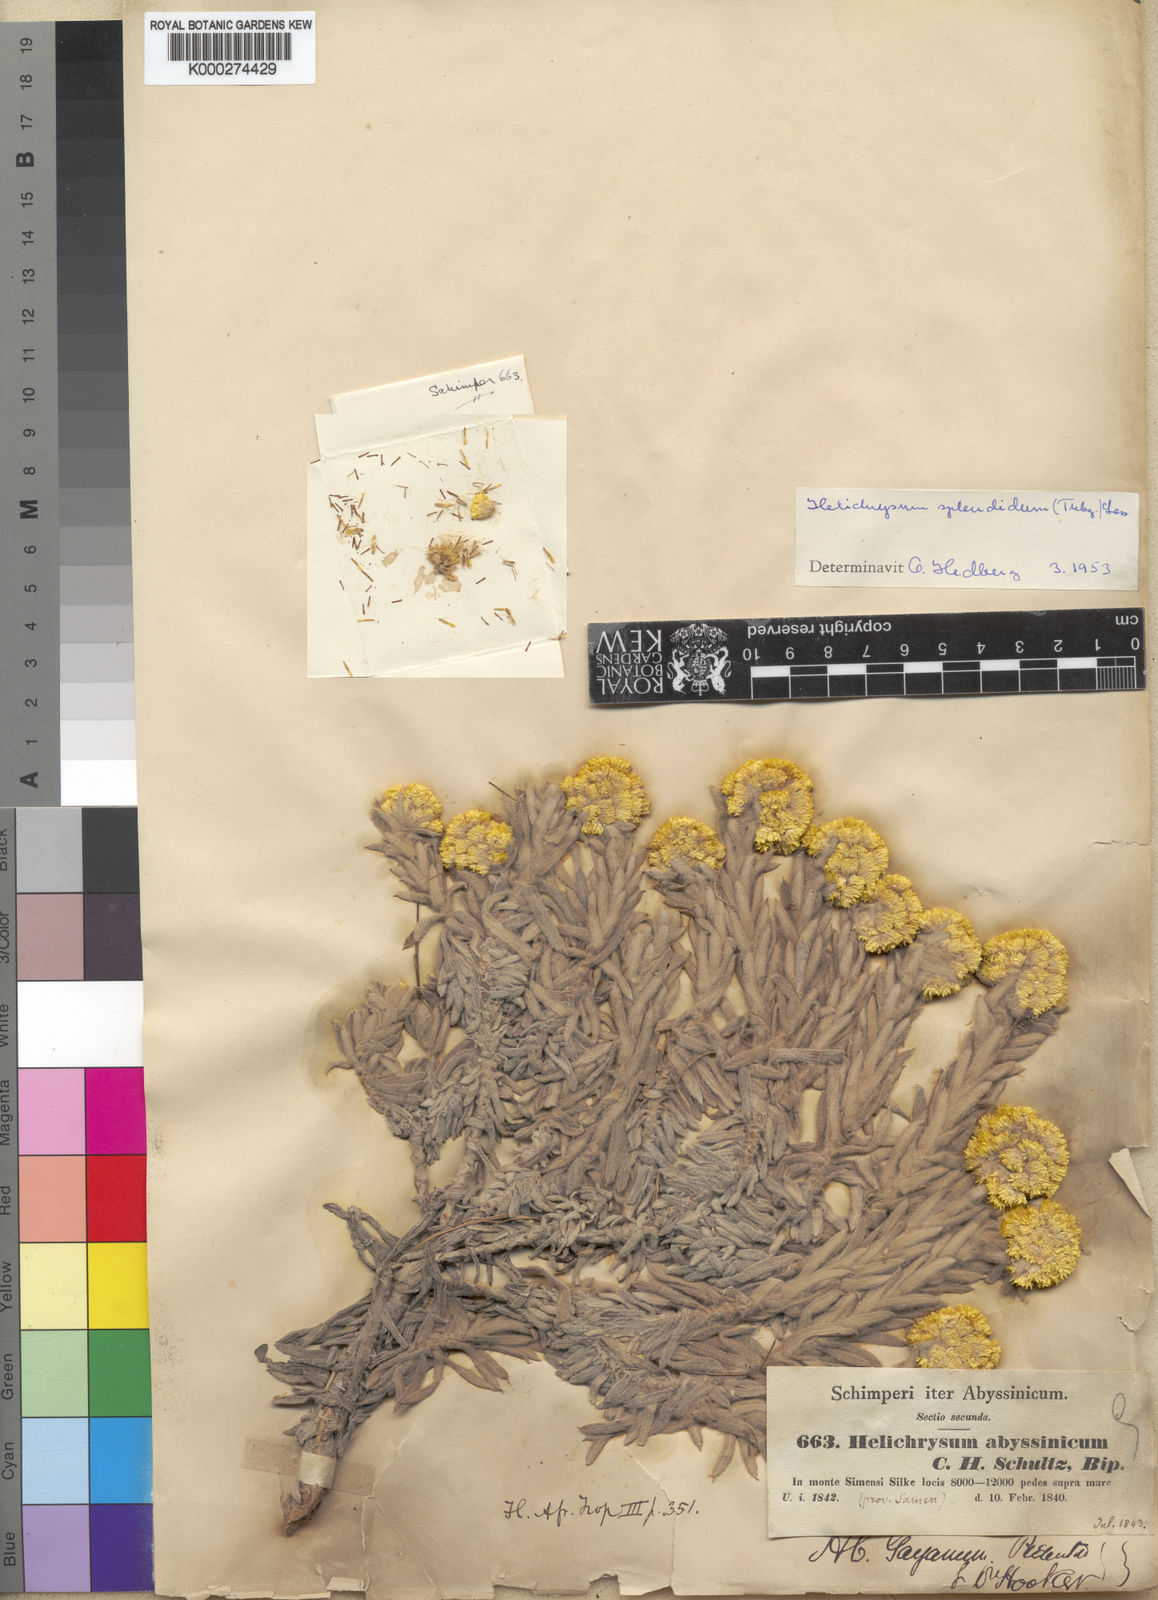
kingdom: Plantae
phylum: Tracheophyta
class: Magnoliopsida
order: Asterales
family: Asteraceae
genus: Helichrysum
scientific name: Helichrysum splendidum
